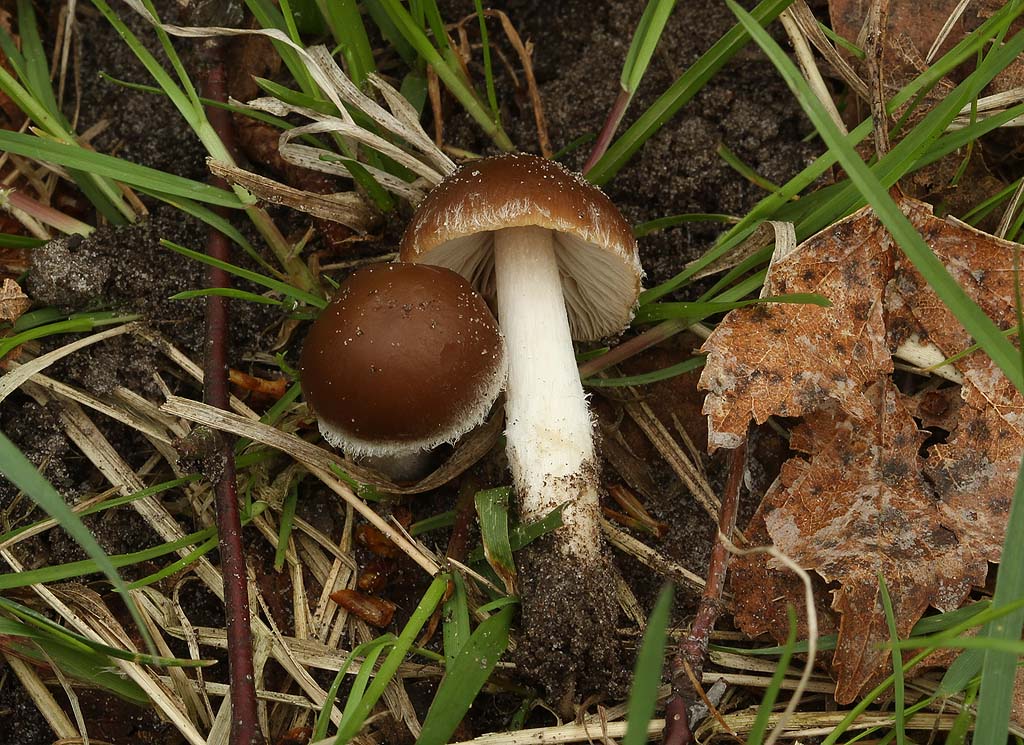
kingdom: Fungi
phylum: Basidiomycota
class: Agaricomycetes
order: Agaricales
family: Psathyrellaceae
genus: Psathyrella
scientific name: Psathyrella spadiceogrisea
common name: gråbrun mørkhat
